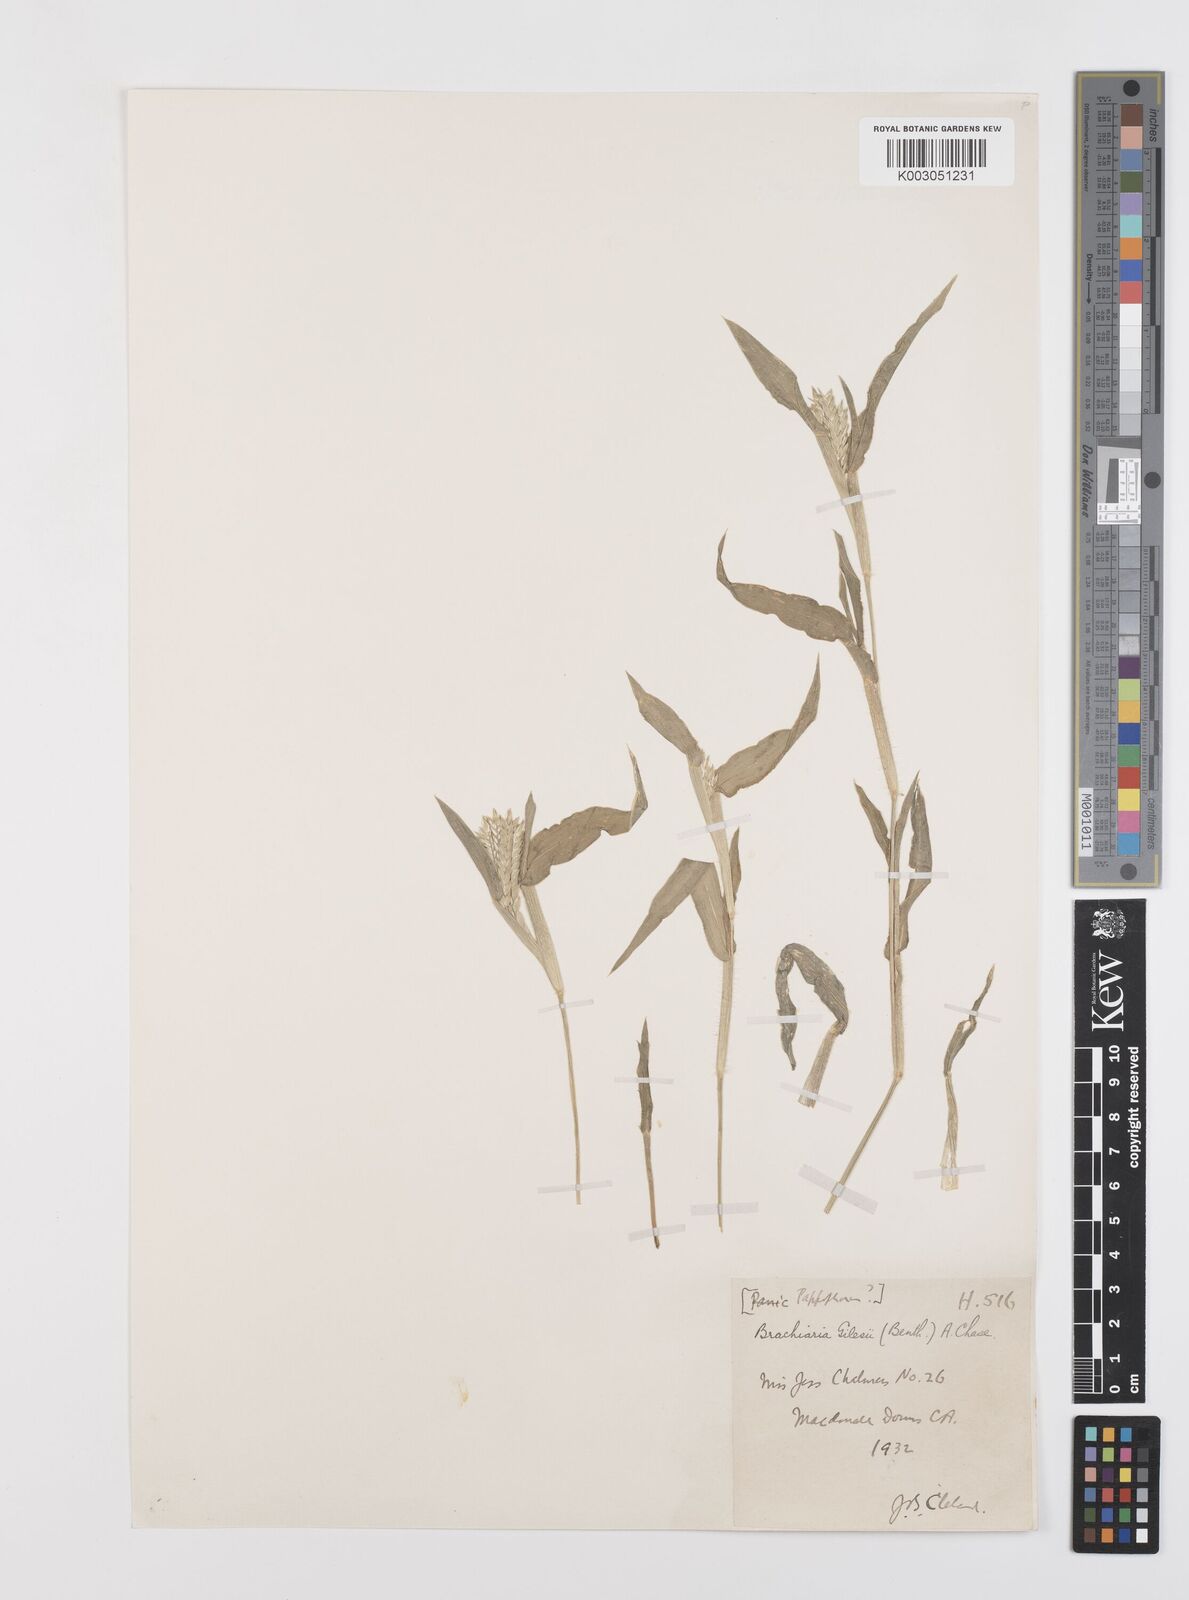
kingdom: Plantae
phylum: Tracheophyta
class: Liliopsida
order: Poales
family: Poaceae
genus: Urochloa
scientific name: Urochloa gilesii
